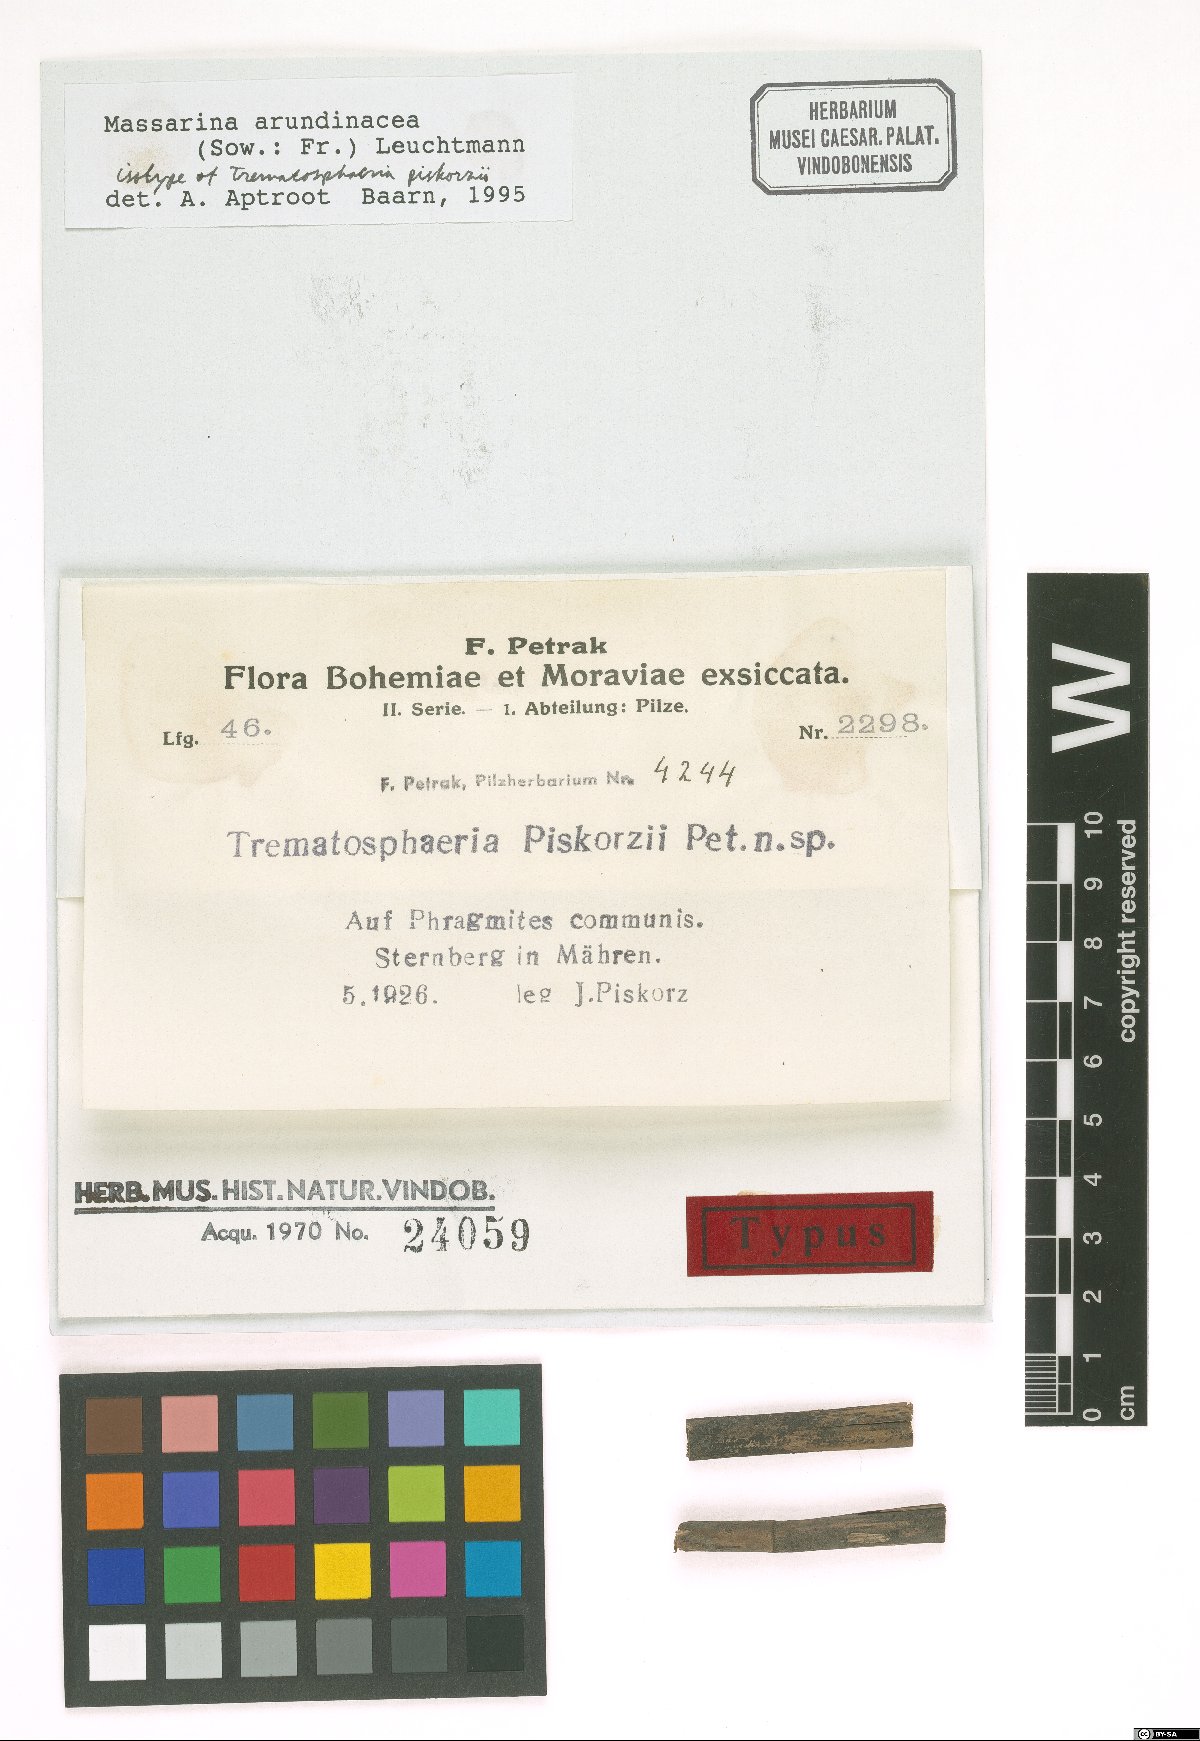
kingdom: Fungi
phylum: Ascomycota
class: Dothideomycetes
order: Pleosporales
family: Massarinaceae
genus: Massarina
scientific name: Massarina piskorzii
